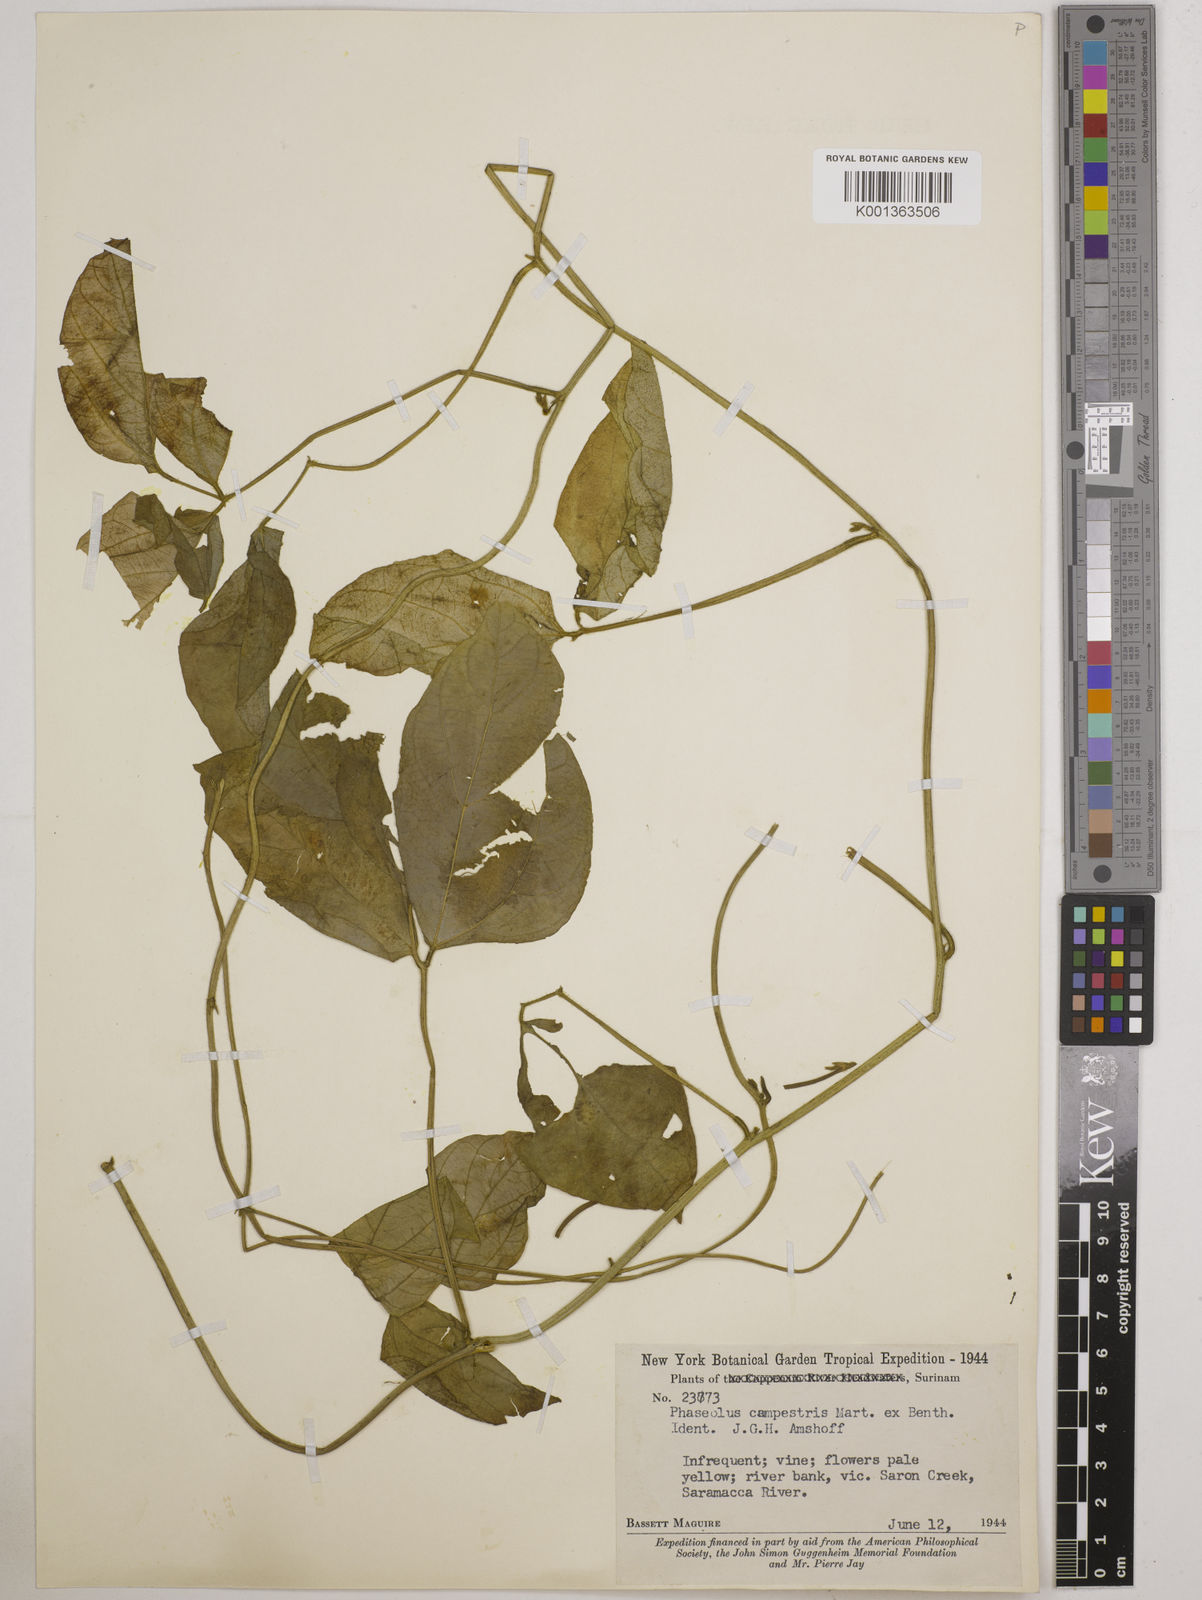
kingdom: Plantae
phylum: Tracheophyta
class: Magnoliopsida
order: Fabales
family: Fabaceae
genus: Vigna
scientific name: Vigna juruana
